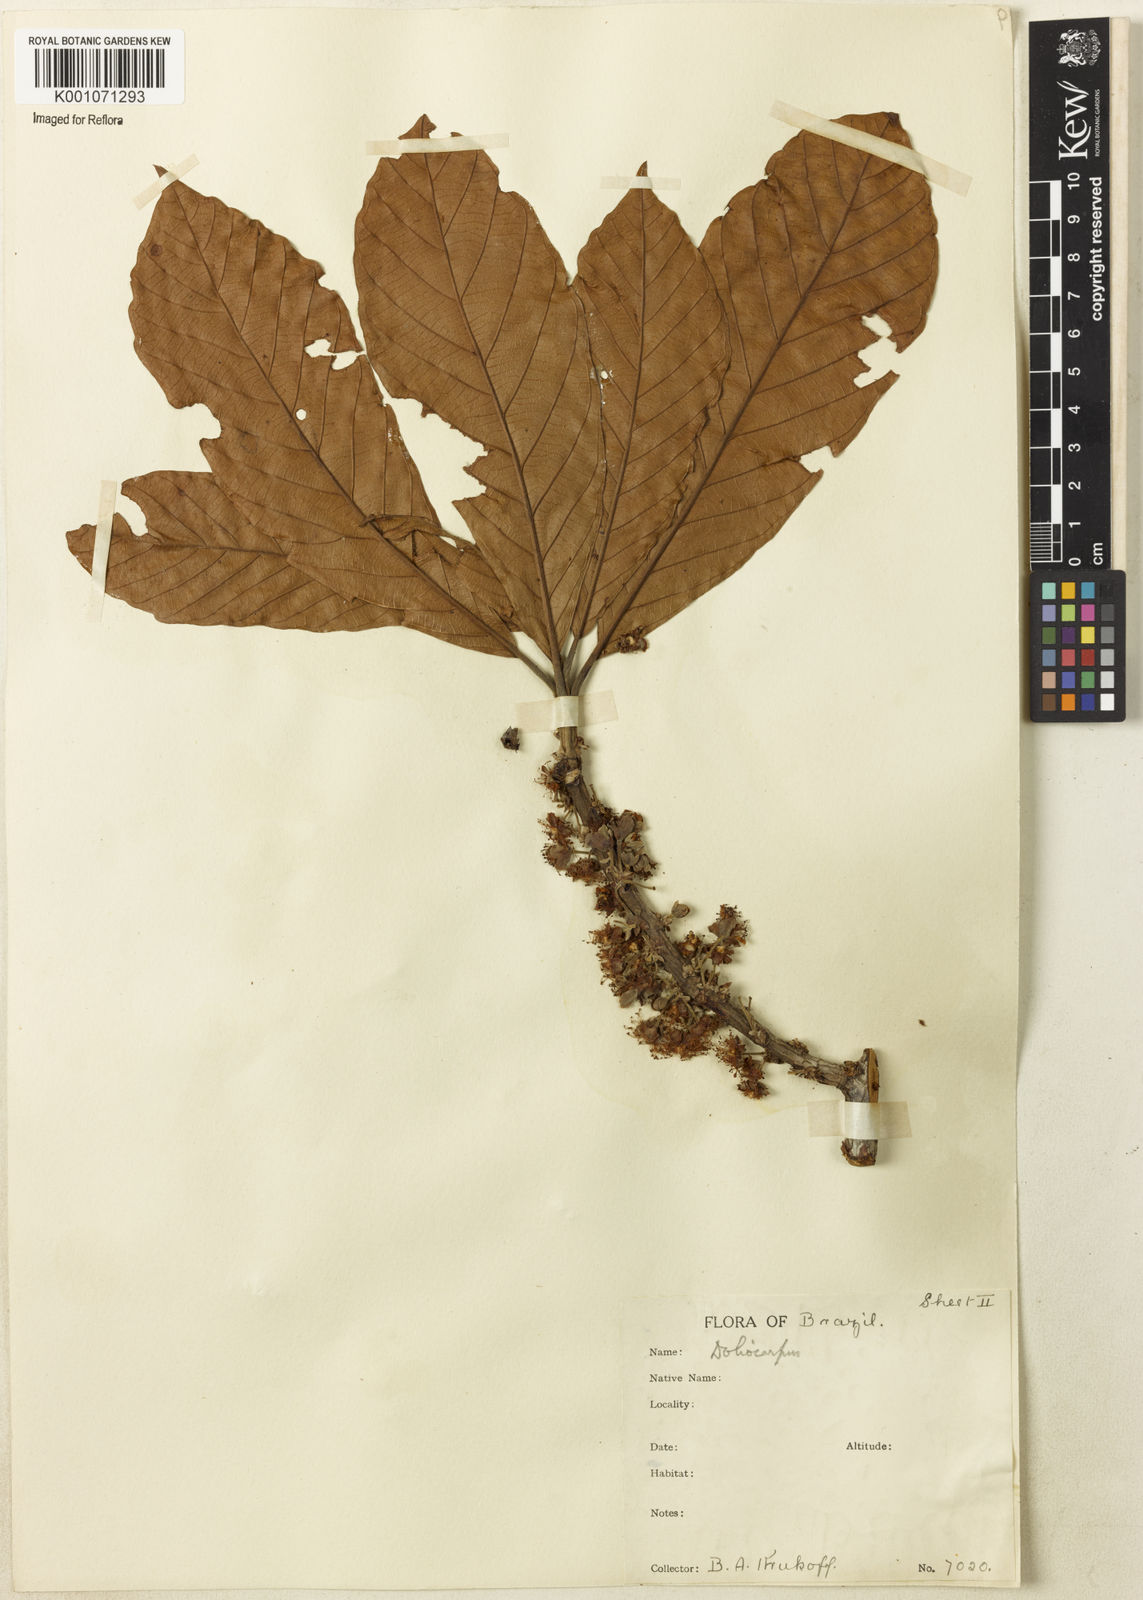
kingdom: Plantae
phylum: Tracheophyta
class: Magnoliopsida
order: Dilleniales
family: Dilleniaceae
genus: Doliocarpus
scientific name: Doliocarpus
